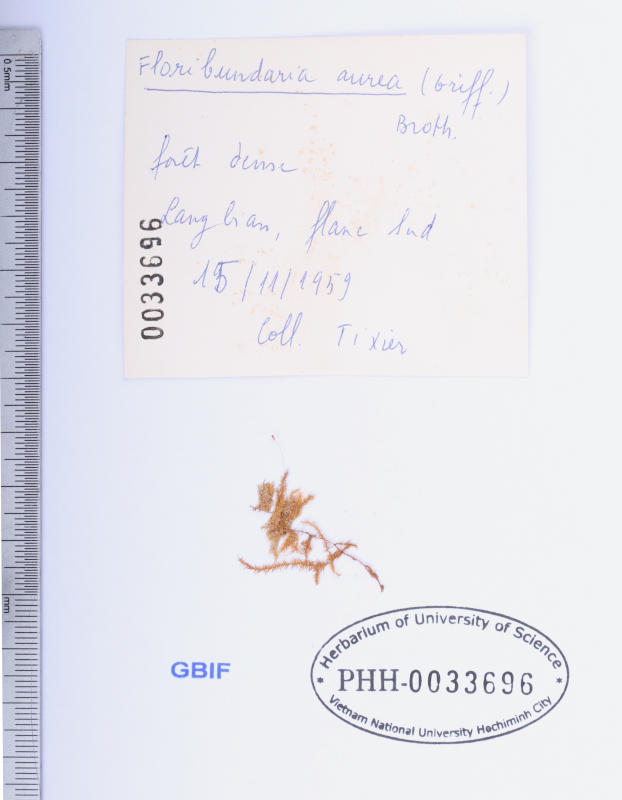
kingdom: Plantae
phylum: Bryophyta
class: Bryopsida
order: Hypnales
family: Meteoriaceae
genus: Trachycladiella
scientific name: Trachycladiella aurea
